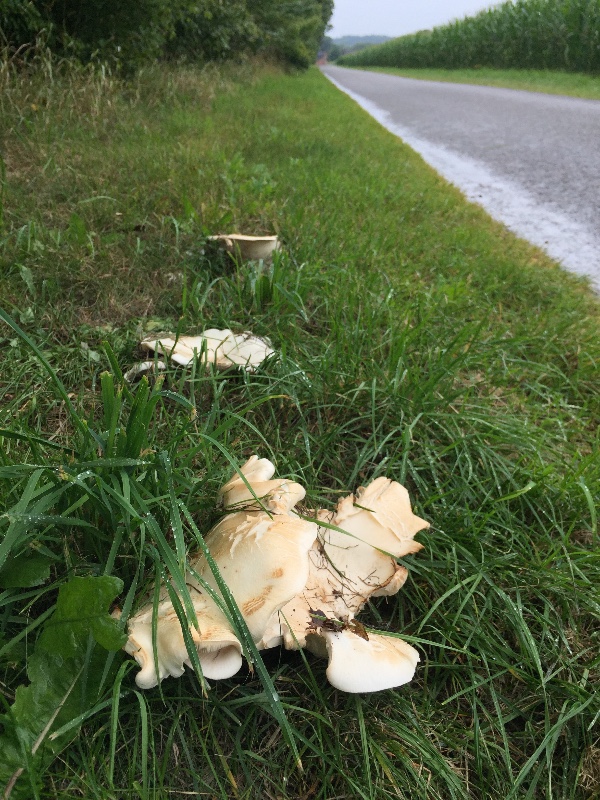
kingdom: Fungi
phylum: Basidiomycota
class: Agaricomycetes
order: Agaricales
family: Tricholomataceae
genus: Aspropaxillus
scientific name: Aspropaxillus giganteus
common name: kæmpe-tragtridderhat
